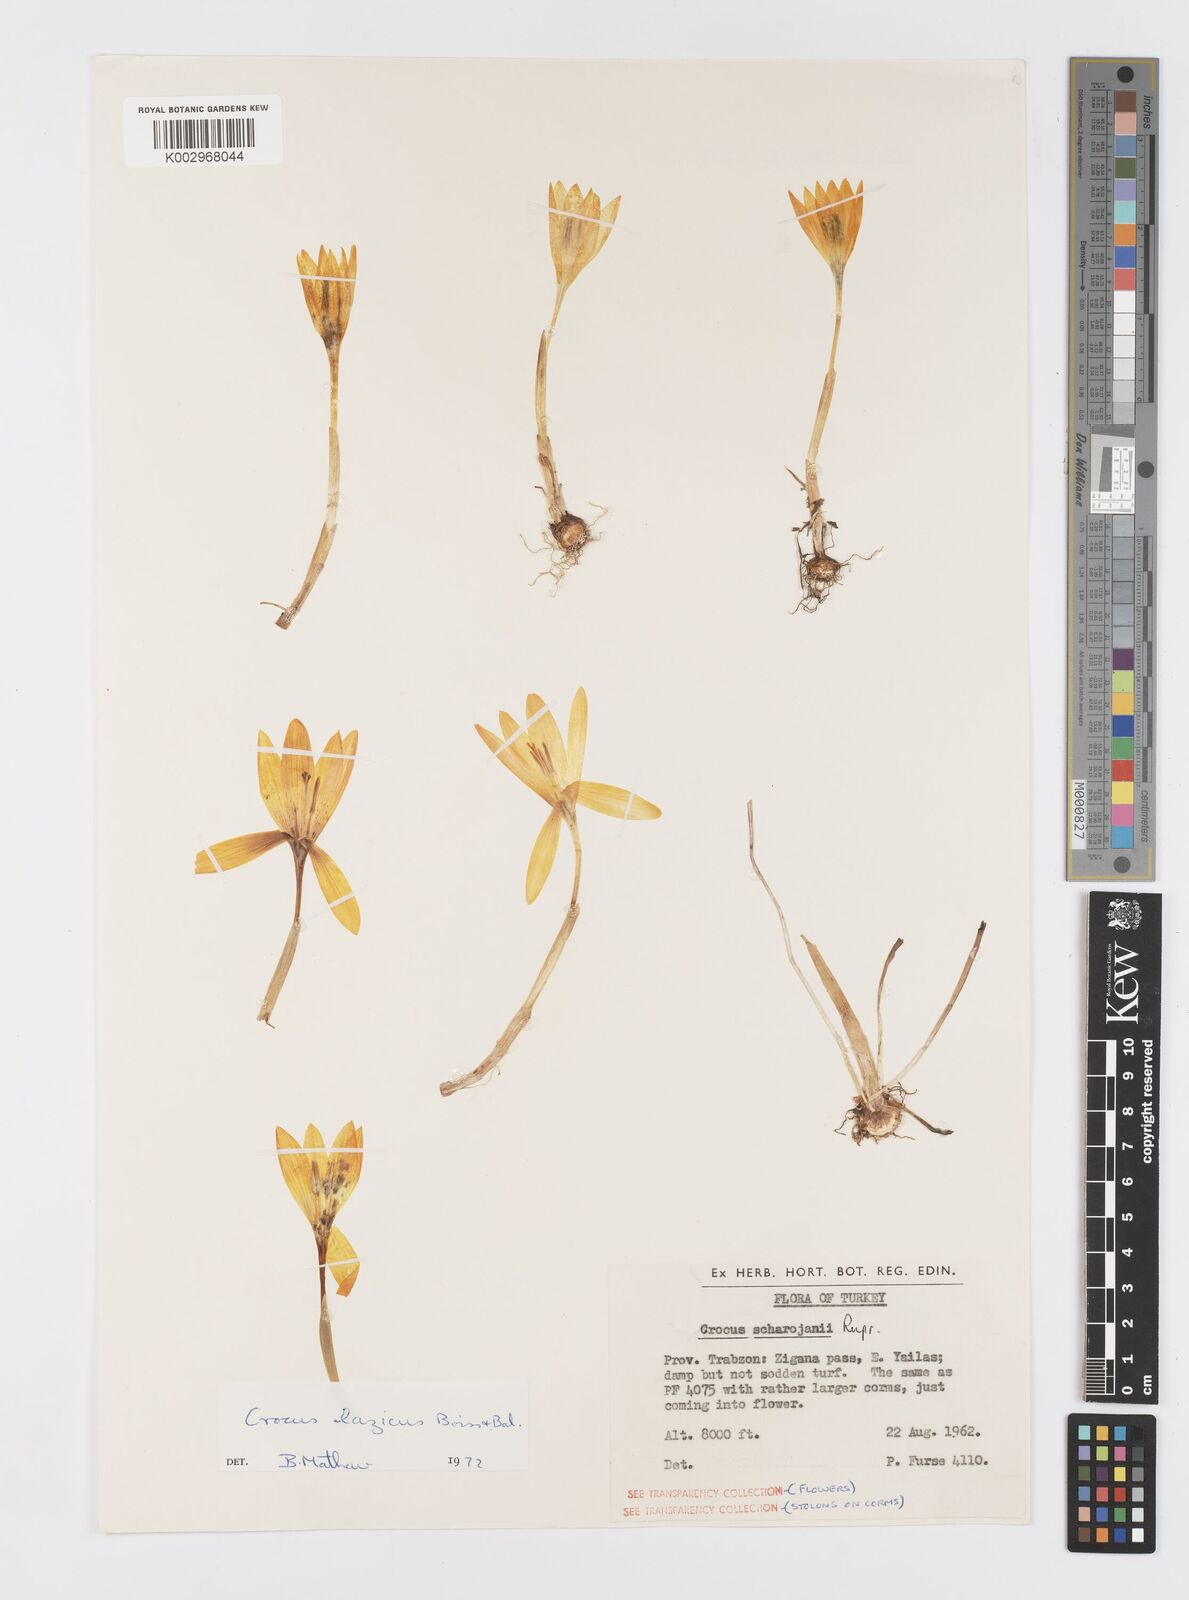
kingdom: Plantae
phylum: Tracheophyta
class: Liliopsida
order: Asparagales
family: Iridaceae
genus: Crocus
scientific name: Crocus lazicus
